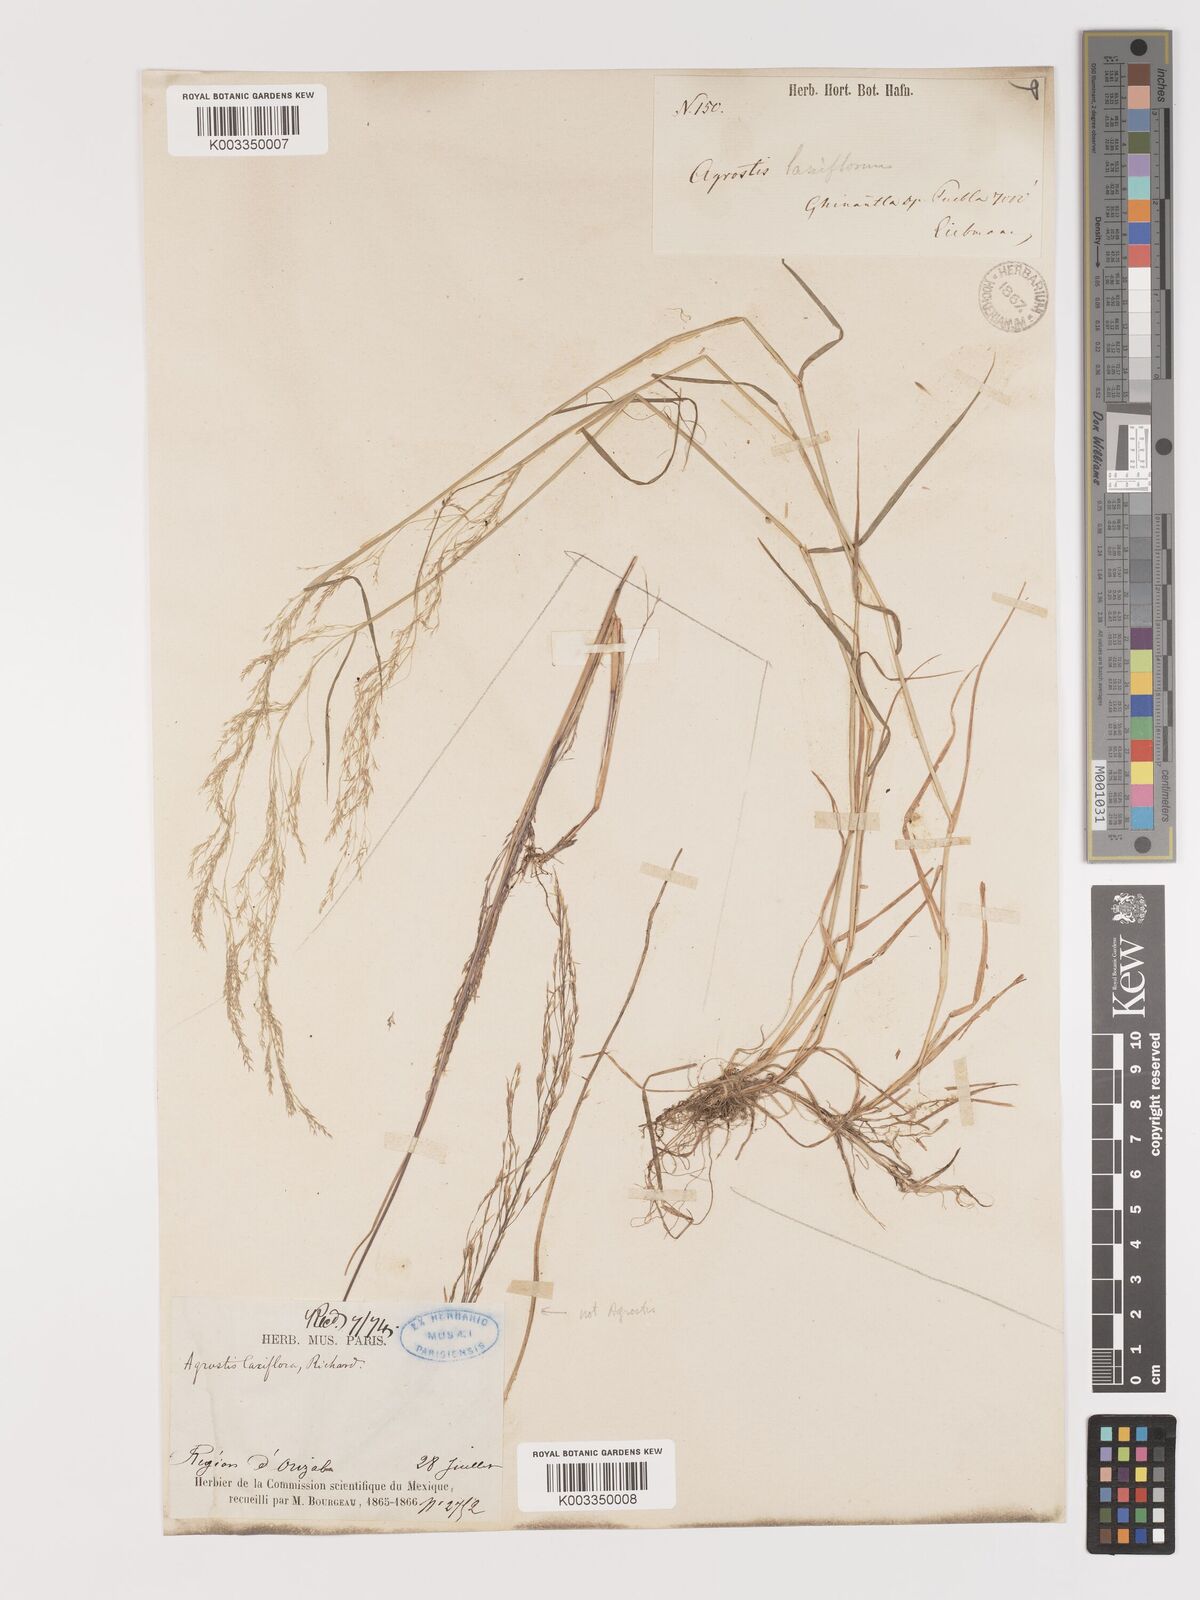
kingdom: Plantae
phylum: Tracheophyta
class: Liliopsida
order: Poales
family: Poaceae
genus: Agrostis
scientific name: Agrostis hyemalis
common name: Small bent
